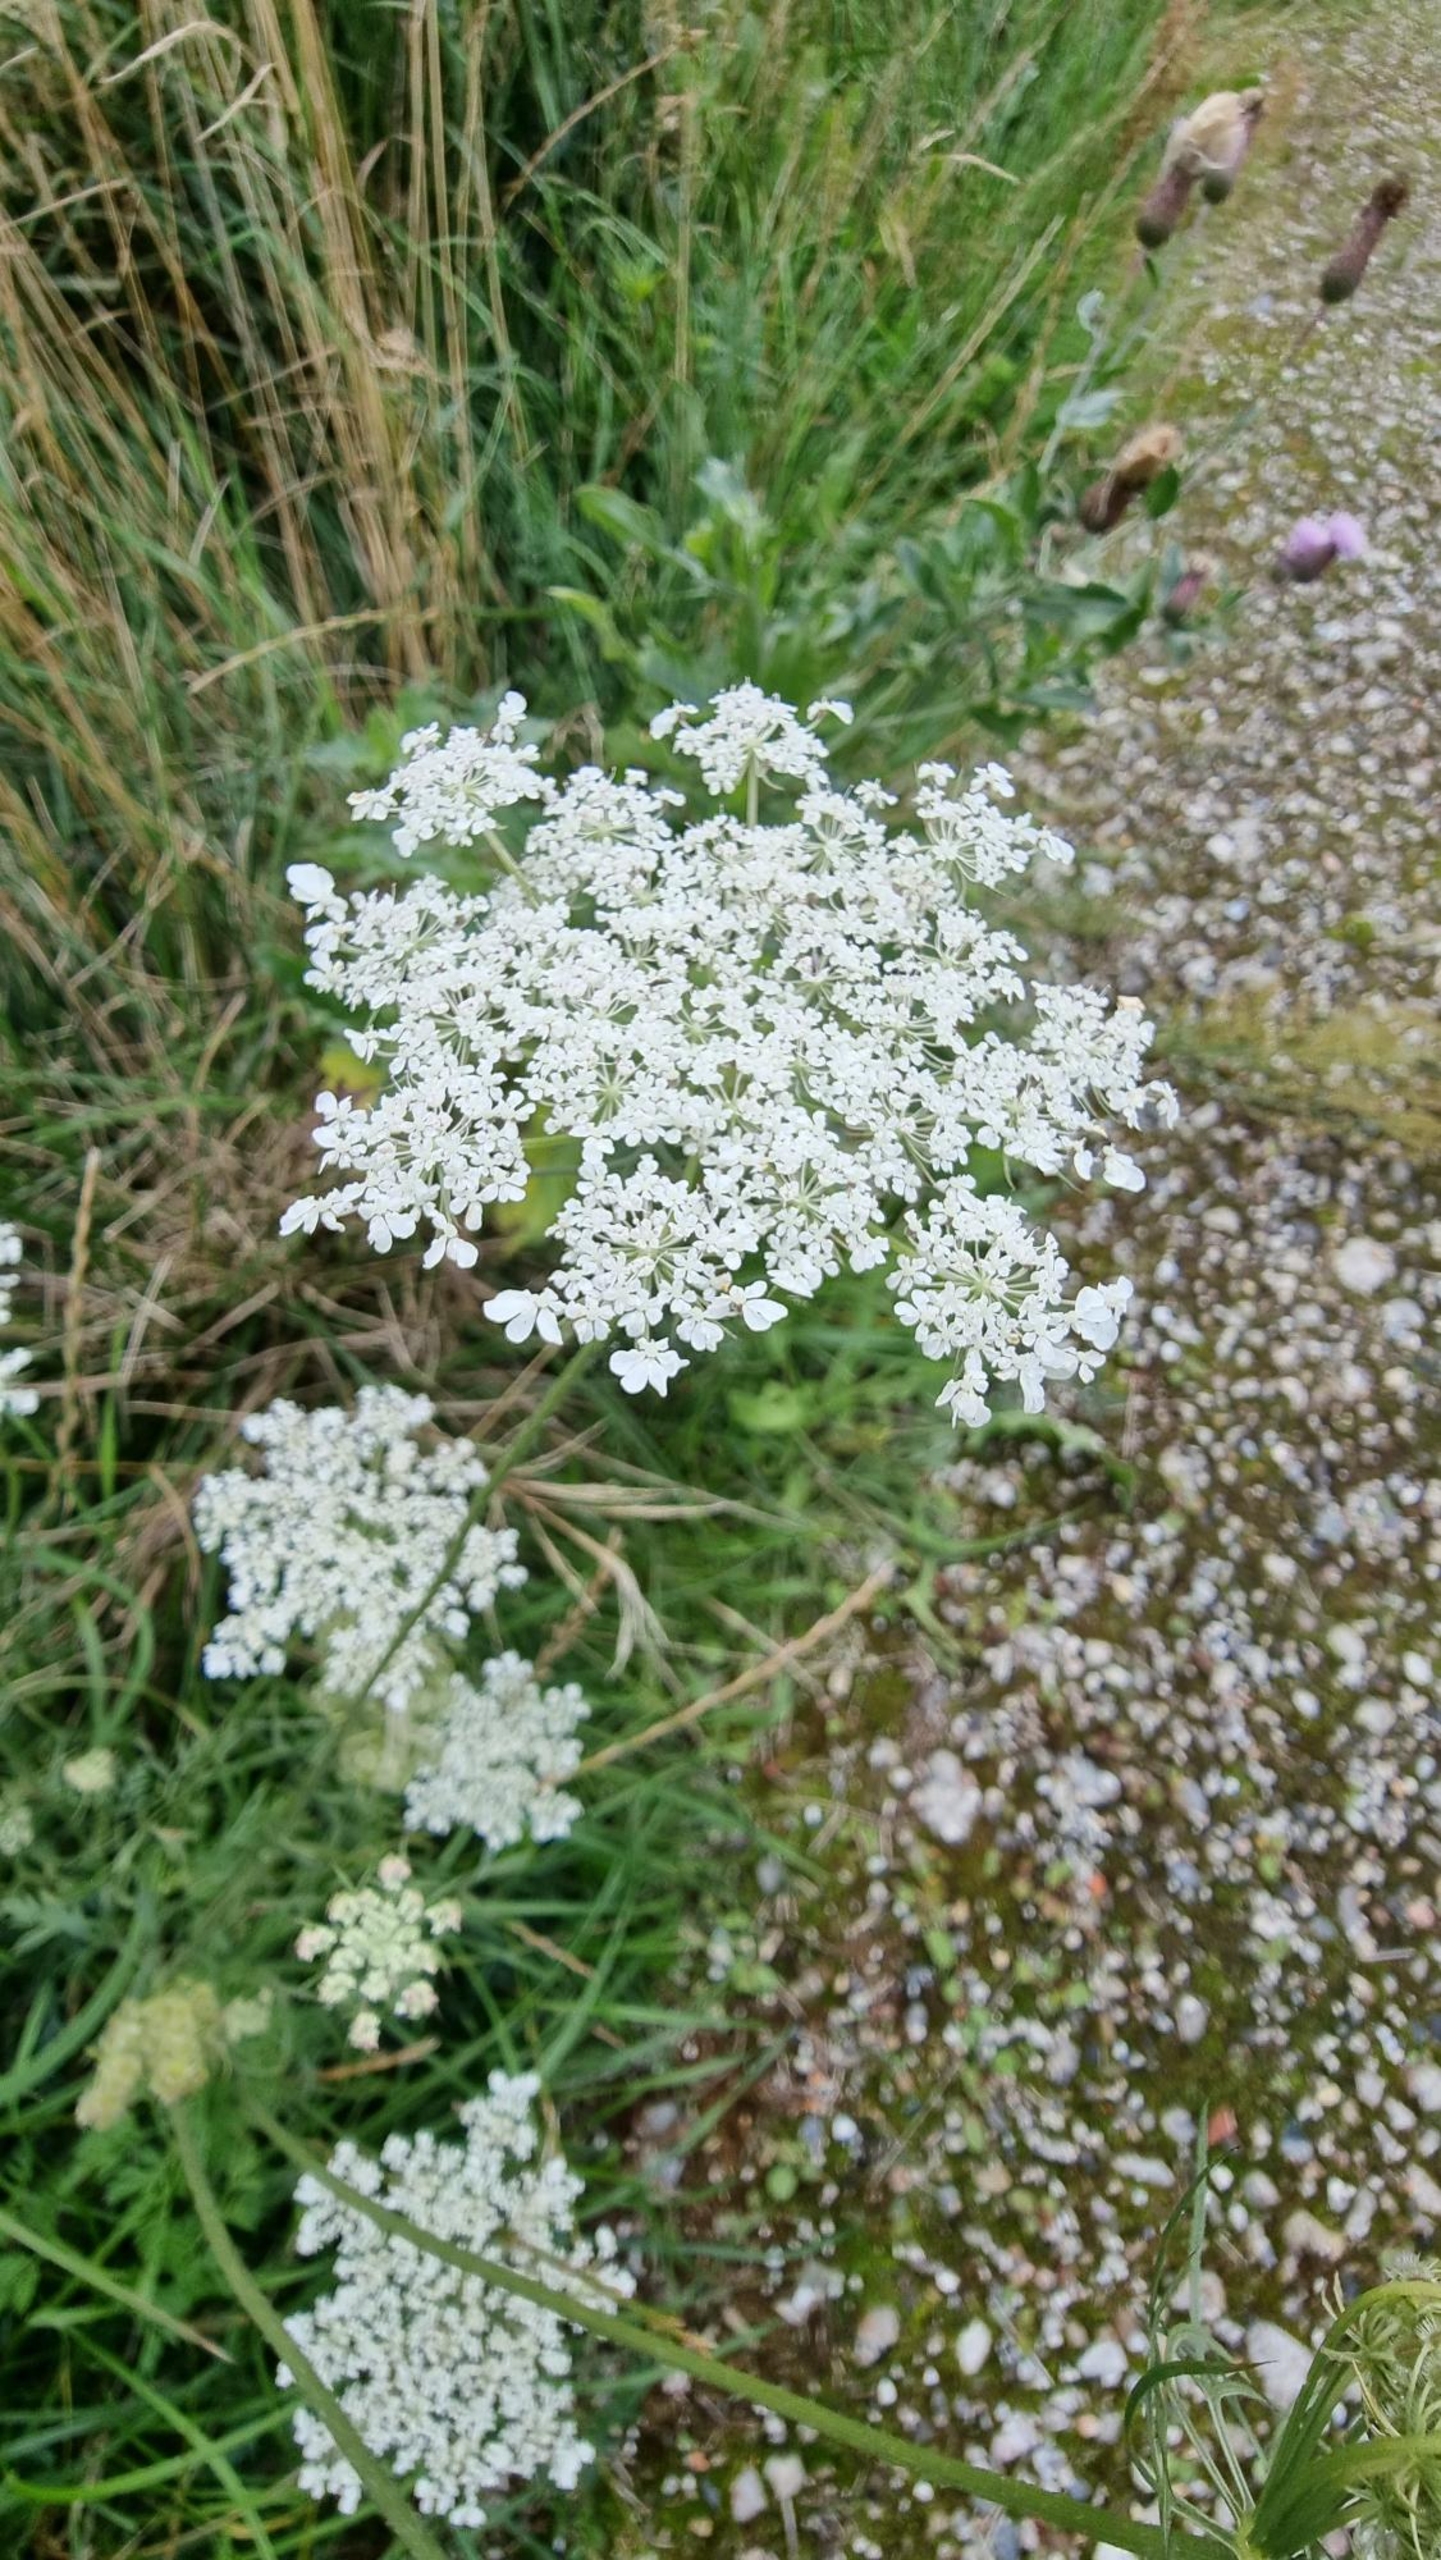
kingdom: Plantae
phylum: Tracheophyta
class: Magnoliopsida
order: Apiales
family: Apiaceae
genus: Daucus
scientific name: Daucus carota
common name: Gulerod
